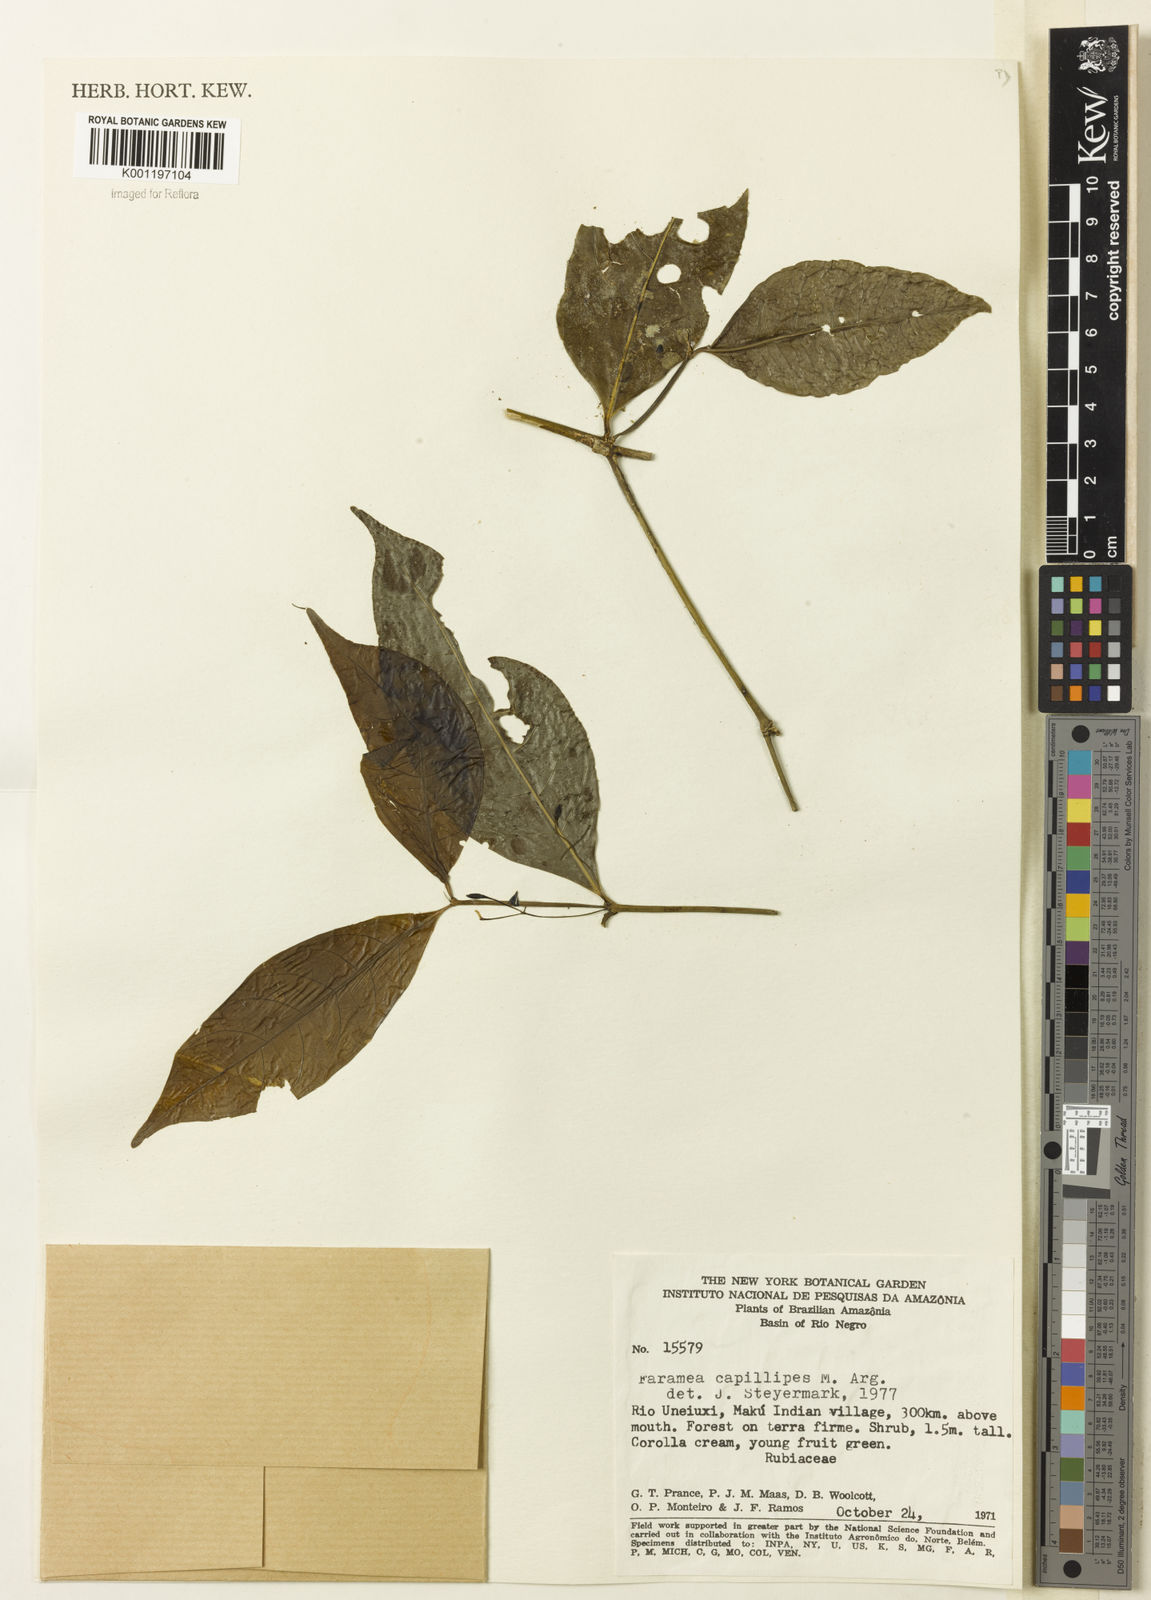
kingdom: Plantae
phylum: Tracheophyta
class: Magnoliopsida
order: Gentianales
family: Rubiaceae
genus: Faramea
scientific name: Faramea
